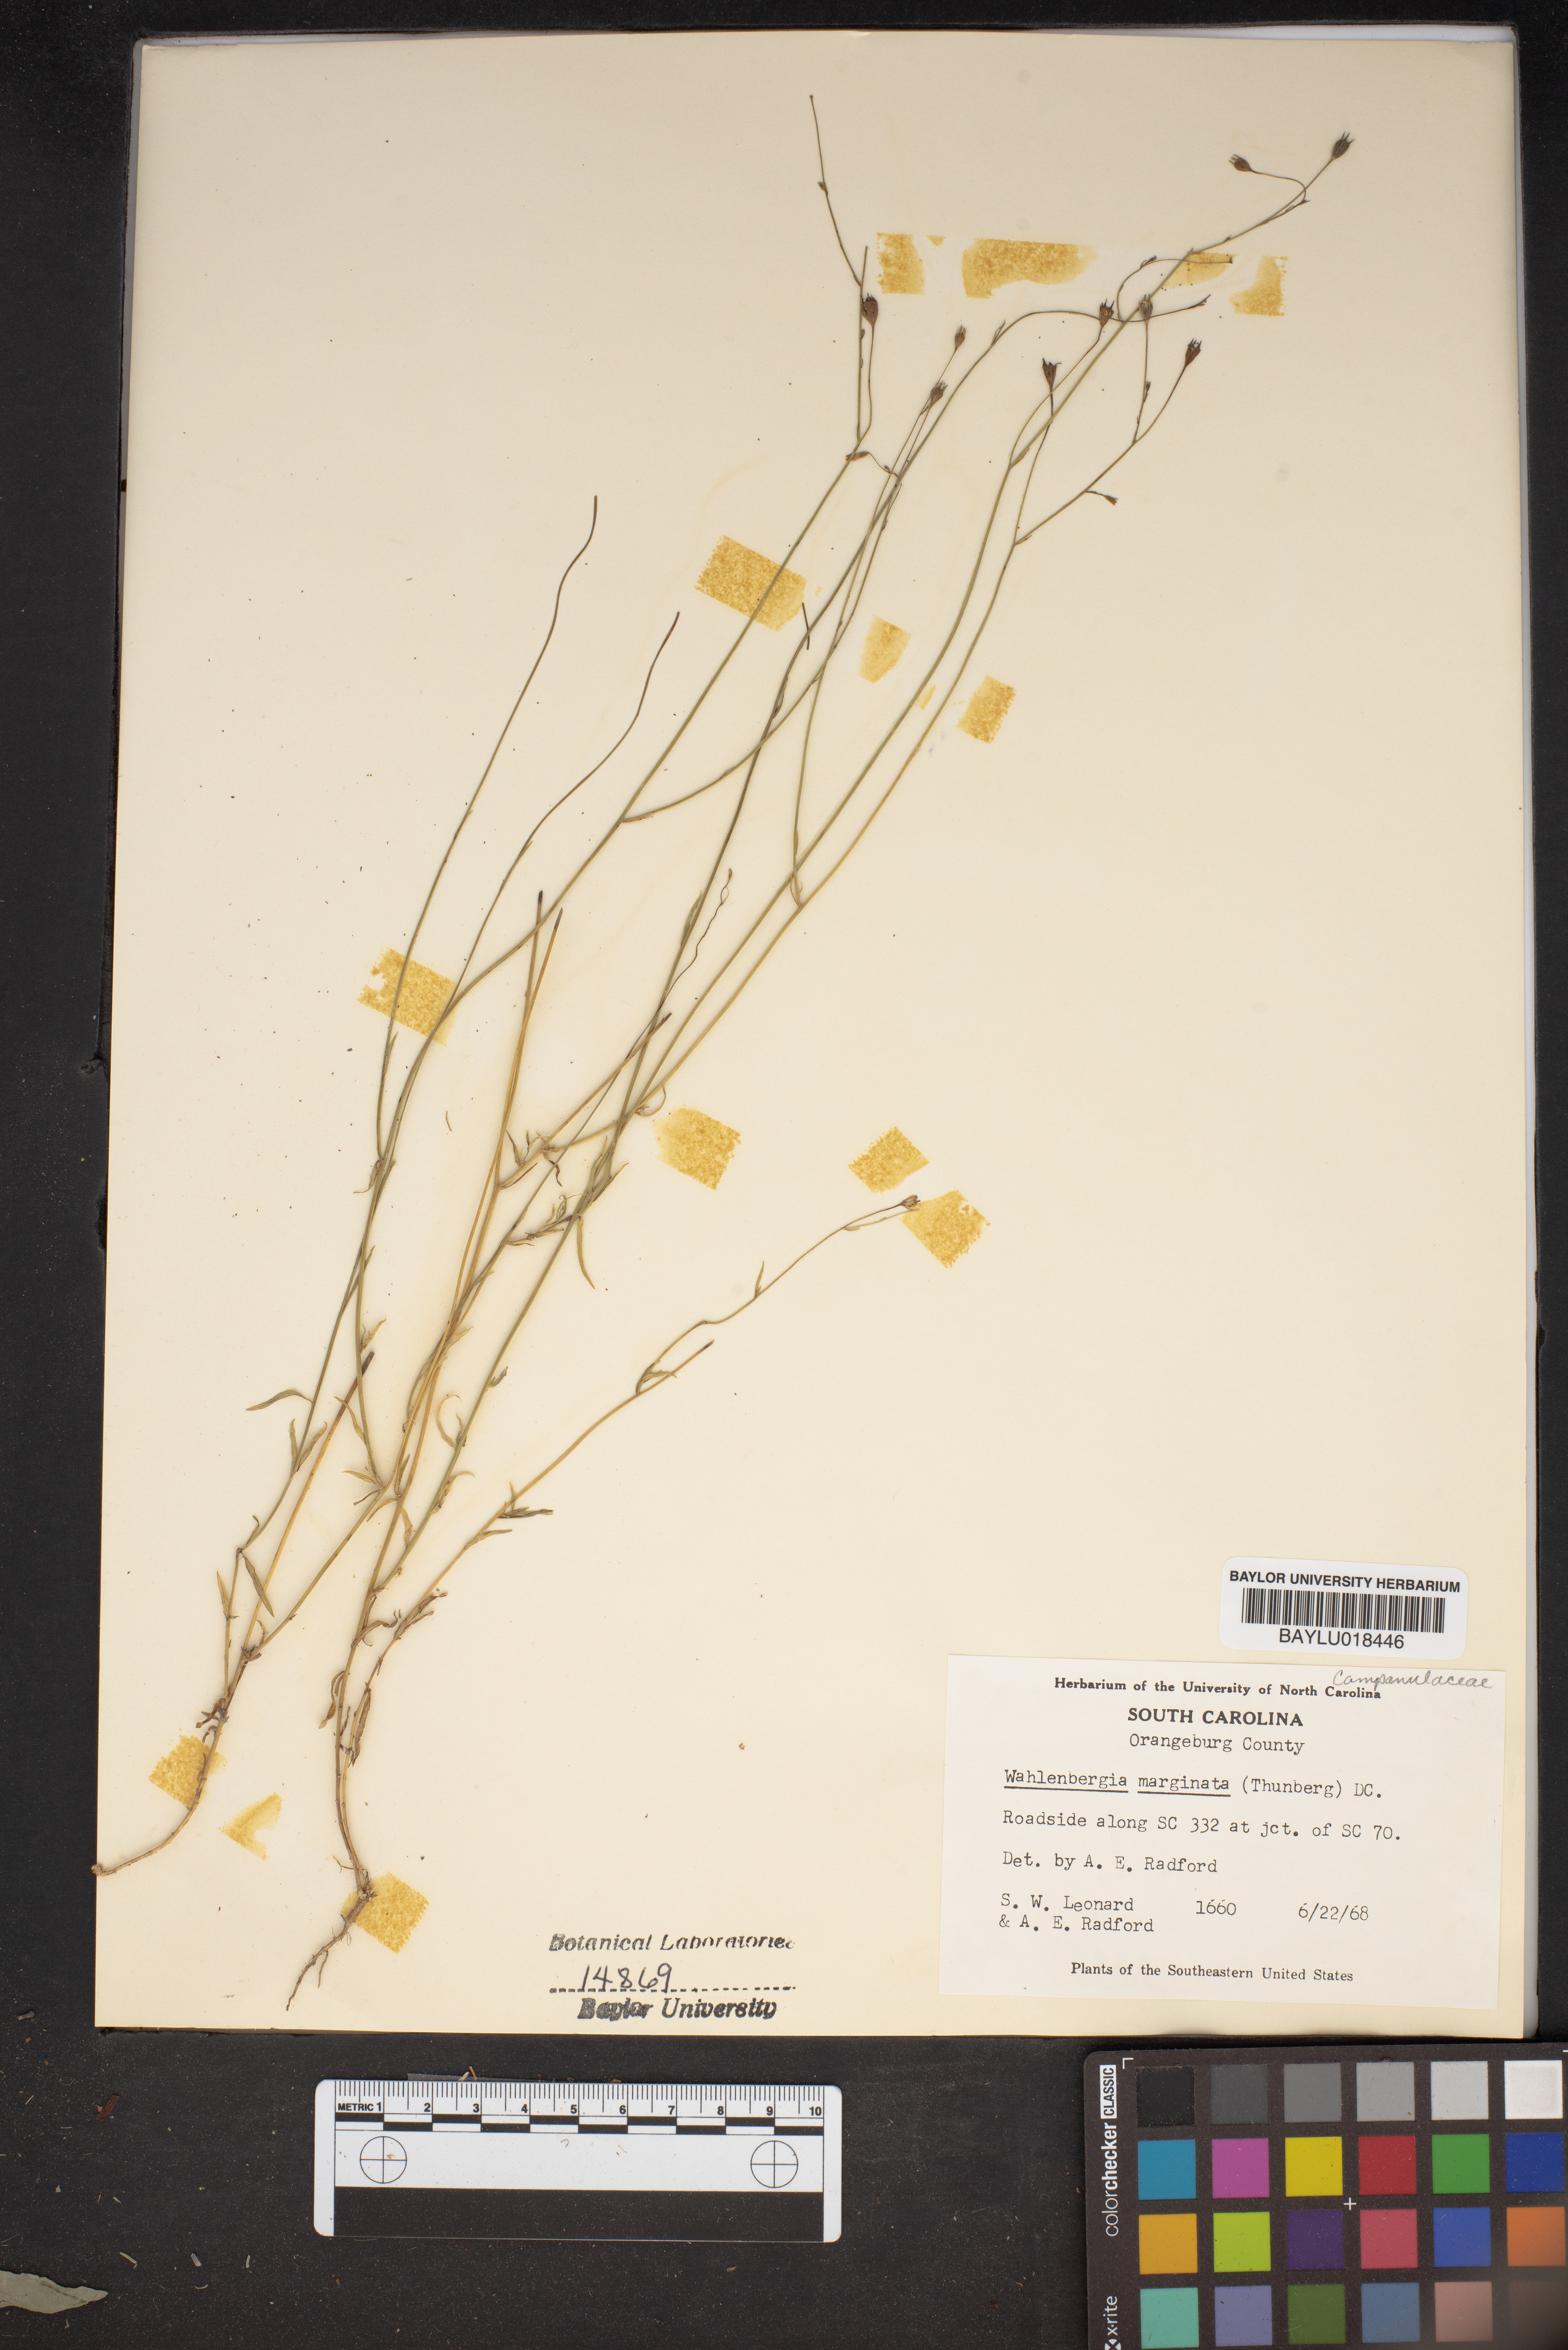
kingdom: Plantae
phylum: Tracheophyta
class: Magnoliopsida
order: Asterales
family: Campanulaceae
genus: Wahlenbergia
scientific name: Wahlenbergia marginata
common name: Southern rockbell
